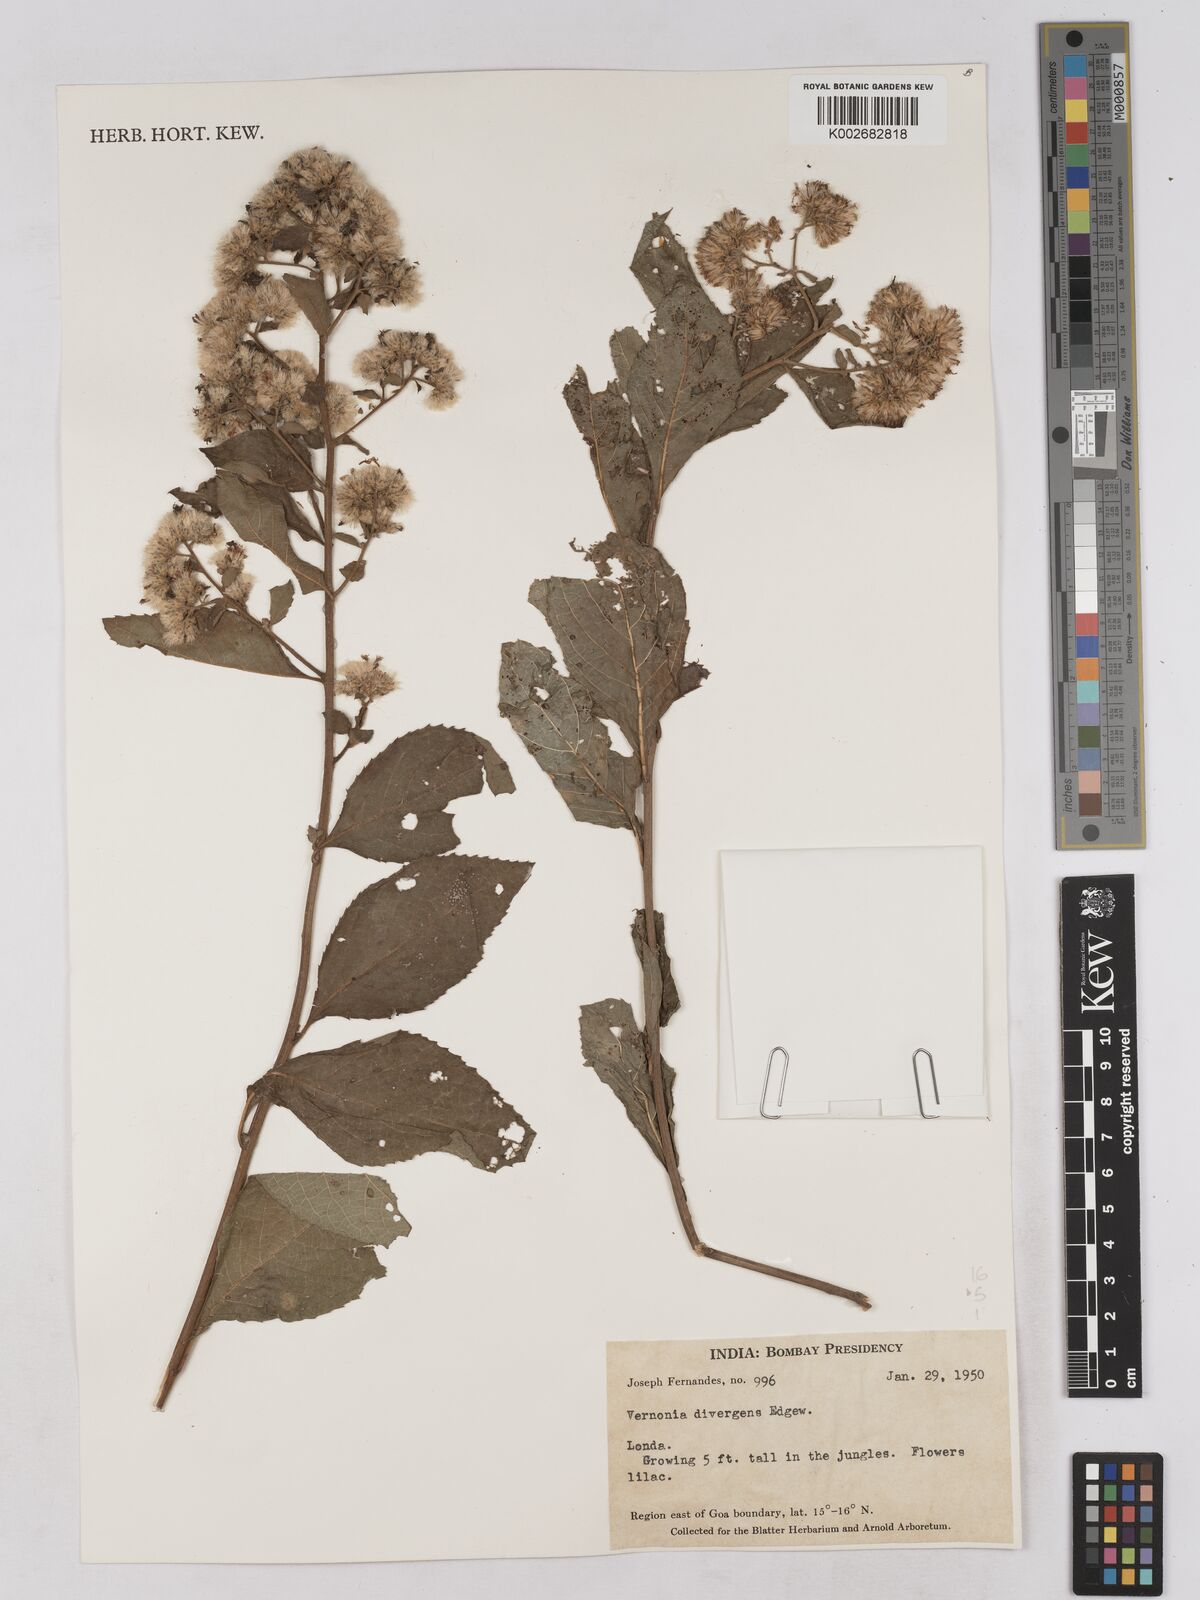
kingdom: Plantae
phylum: Tracheophyta
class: Magnoliopsida
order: Asterales
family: Asteraceae
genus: Acilepis
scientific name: Acilepis divergens
